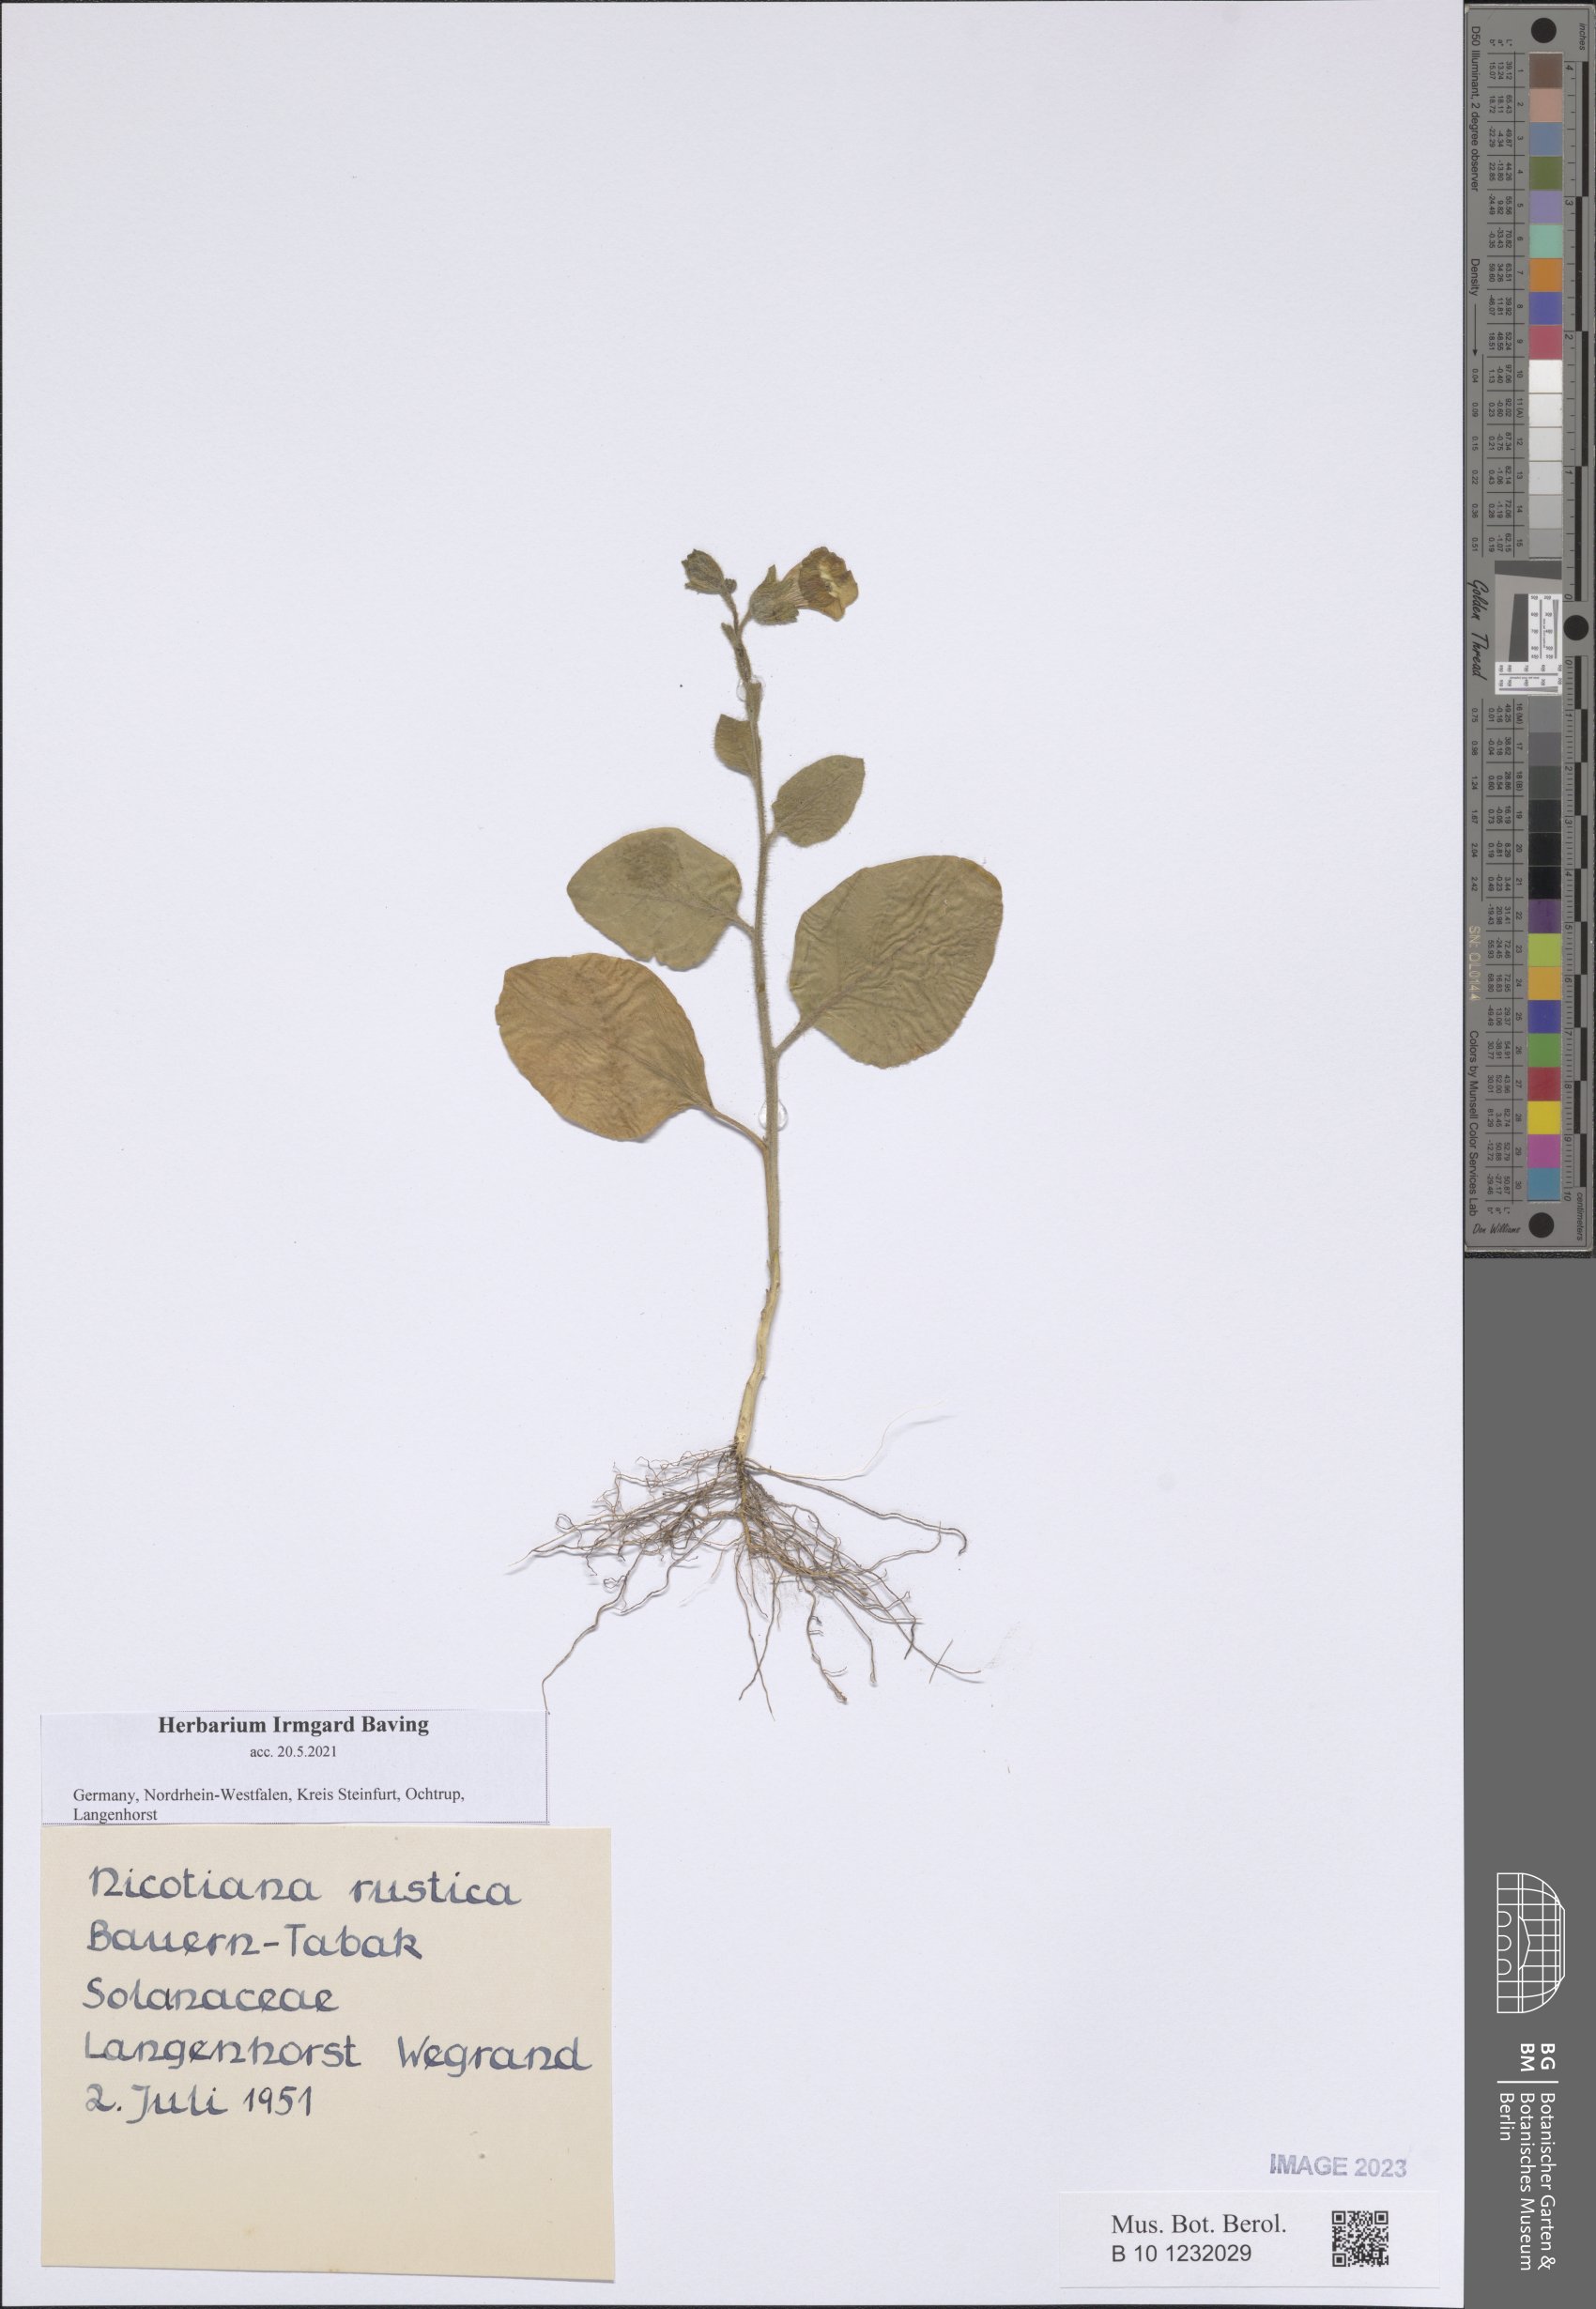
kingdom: Plantae
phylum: Tracheophyta
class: Magnoliopsida
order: Solanales
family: Solanaceae
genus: Nicotiana
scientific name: Nicotiana rustica
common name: Wild tobacco
